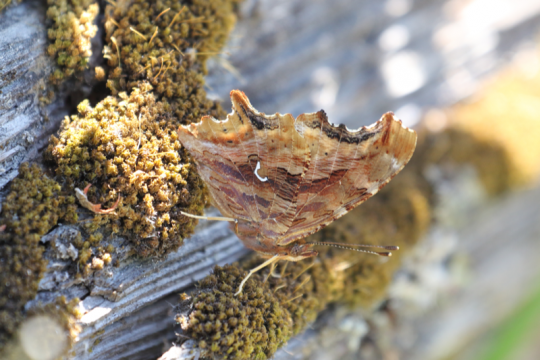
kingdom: Animalia
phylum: Arthropoda
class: Insecta
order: Lepidoptera
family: Nymphalidae
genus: Polygonia
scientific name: Polygonia satyrus
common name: Satyr Comma
